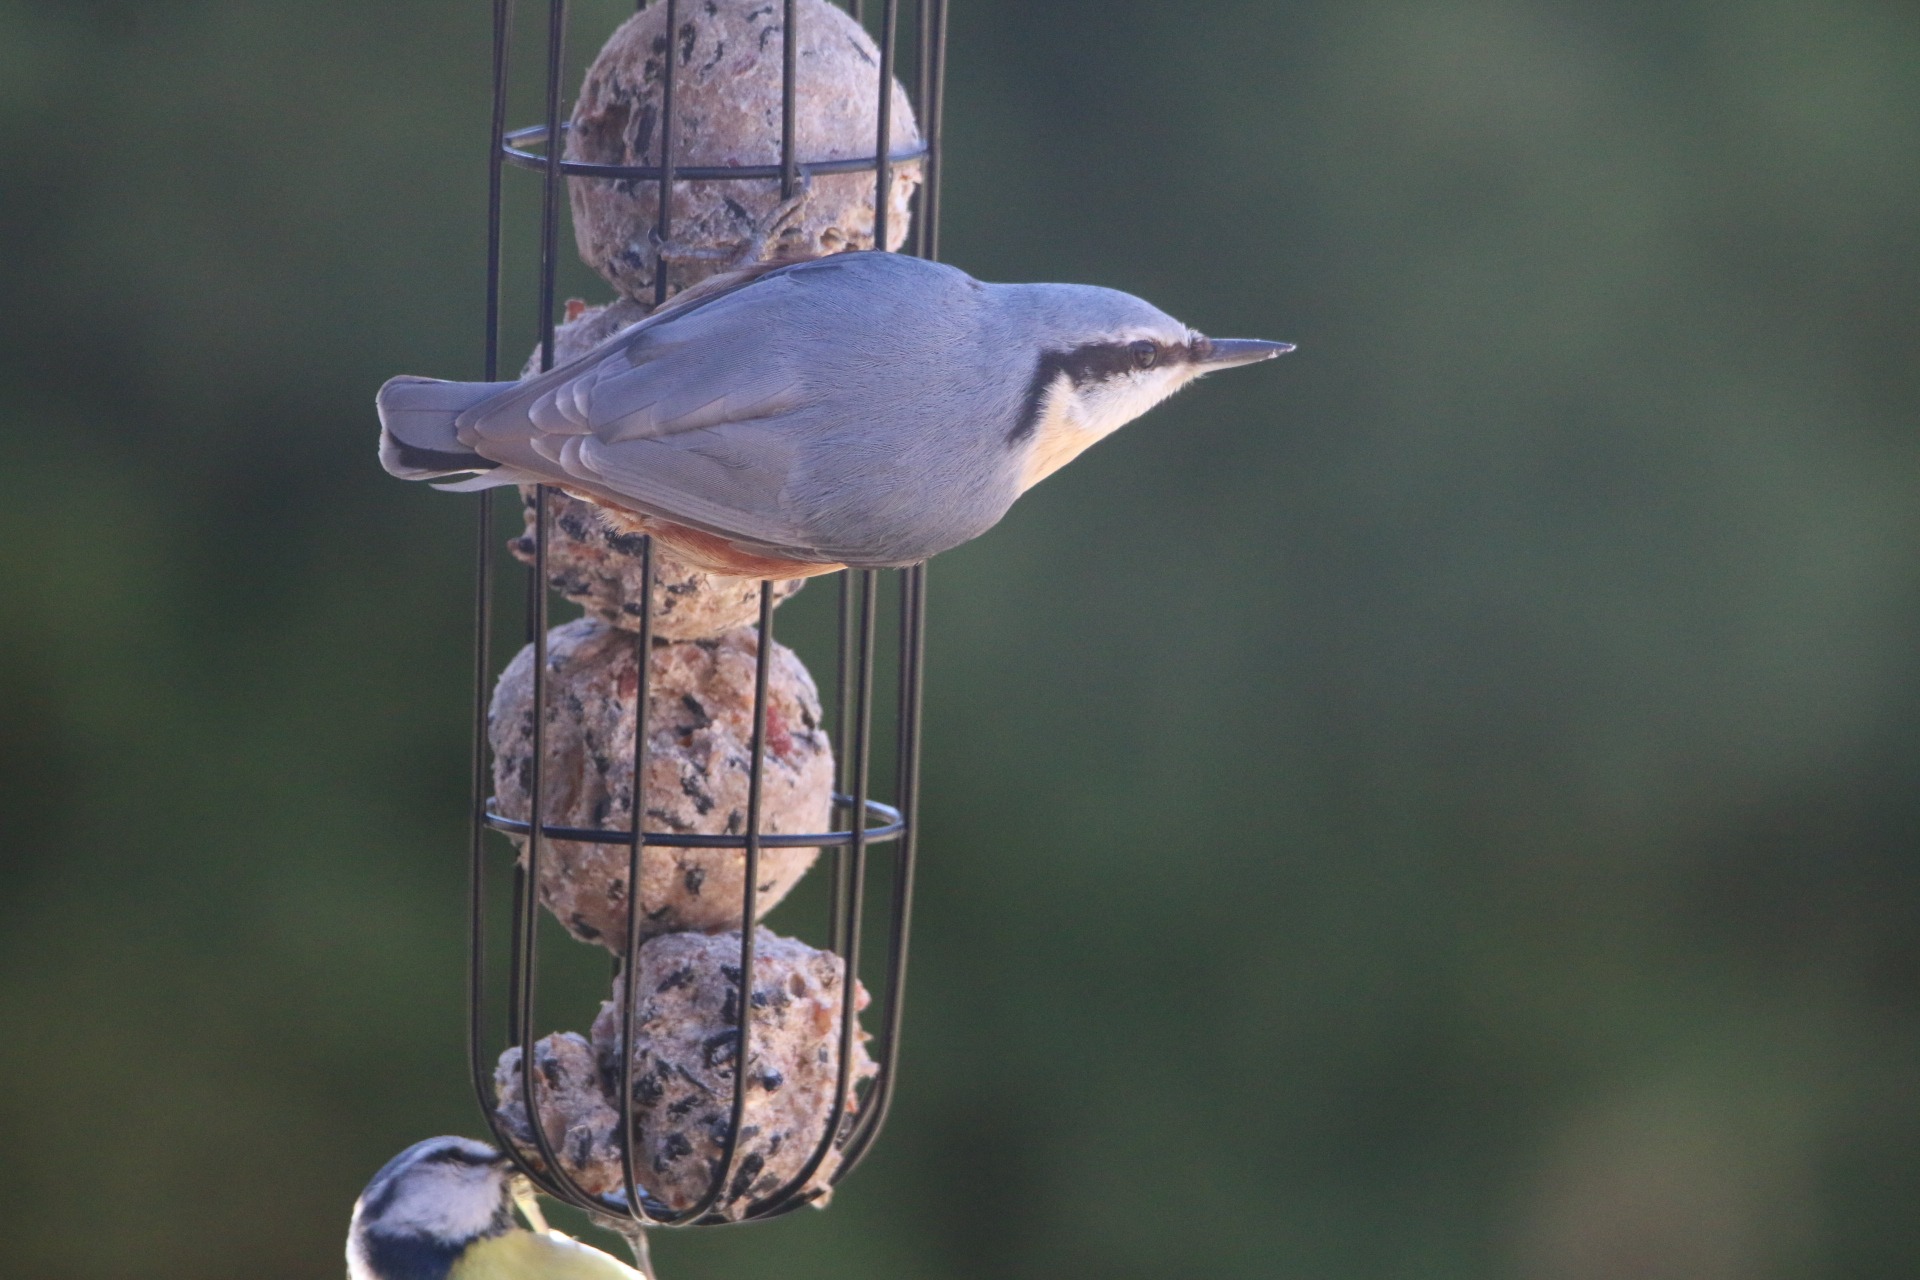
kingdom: Animalia
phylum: Chordata
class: Aves
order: Passeriformes
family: Sittidae
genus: Sitta
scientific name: Sitta europaea
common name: Spætmejse
